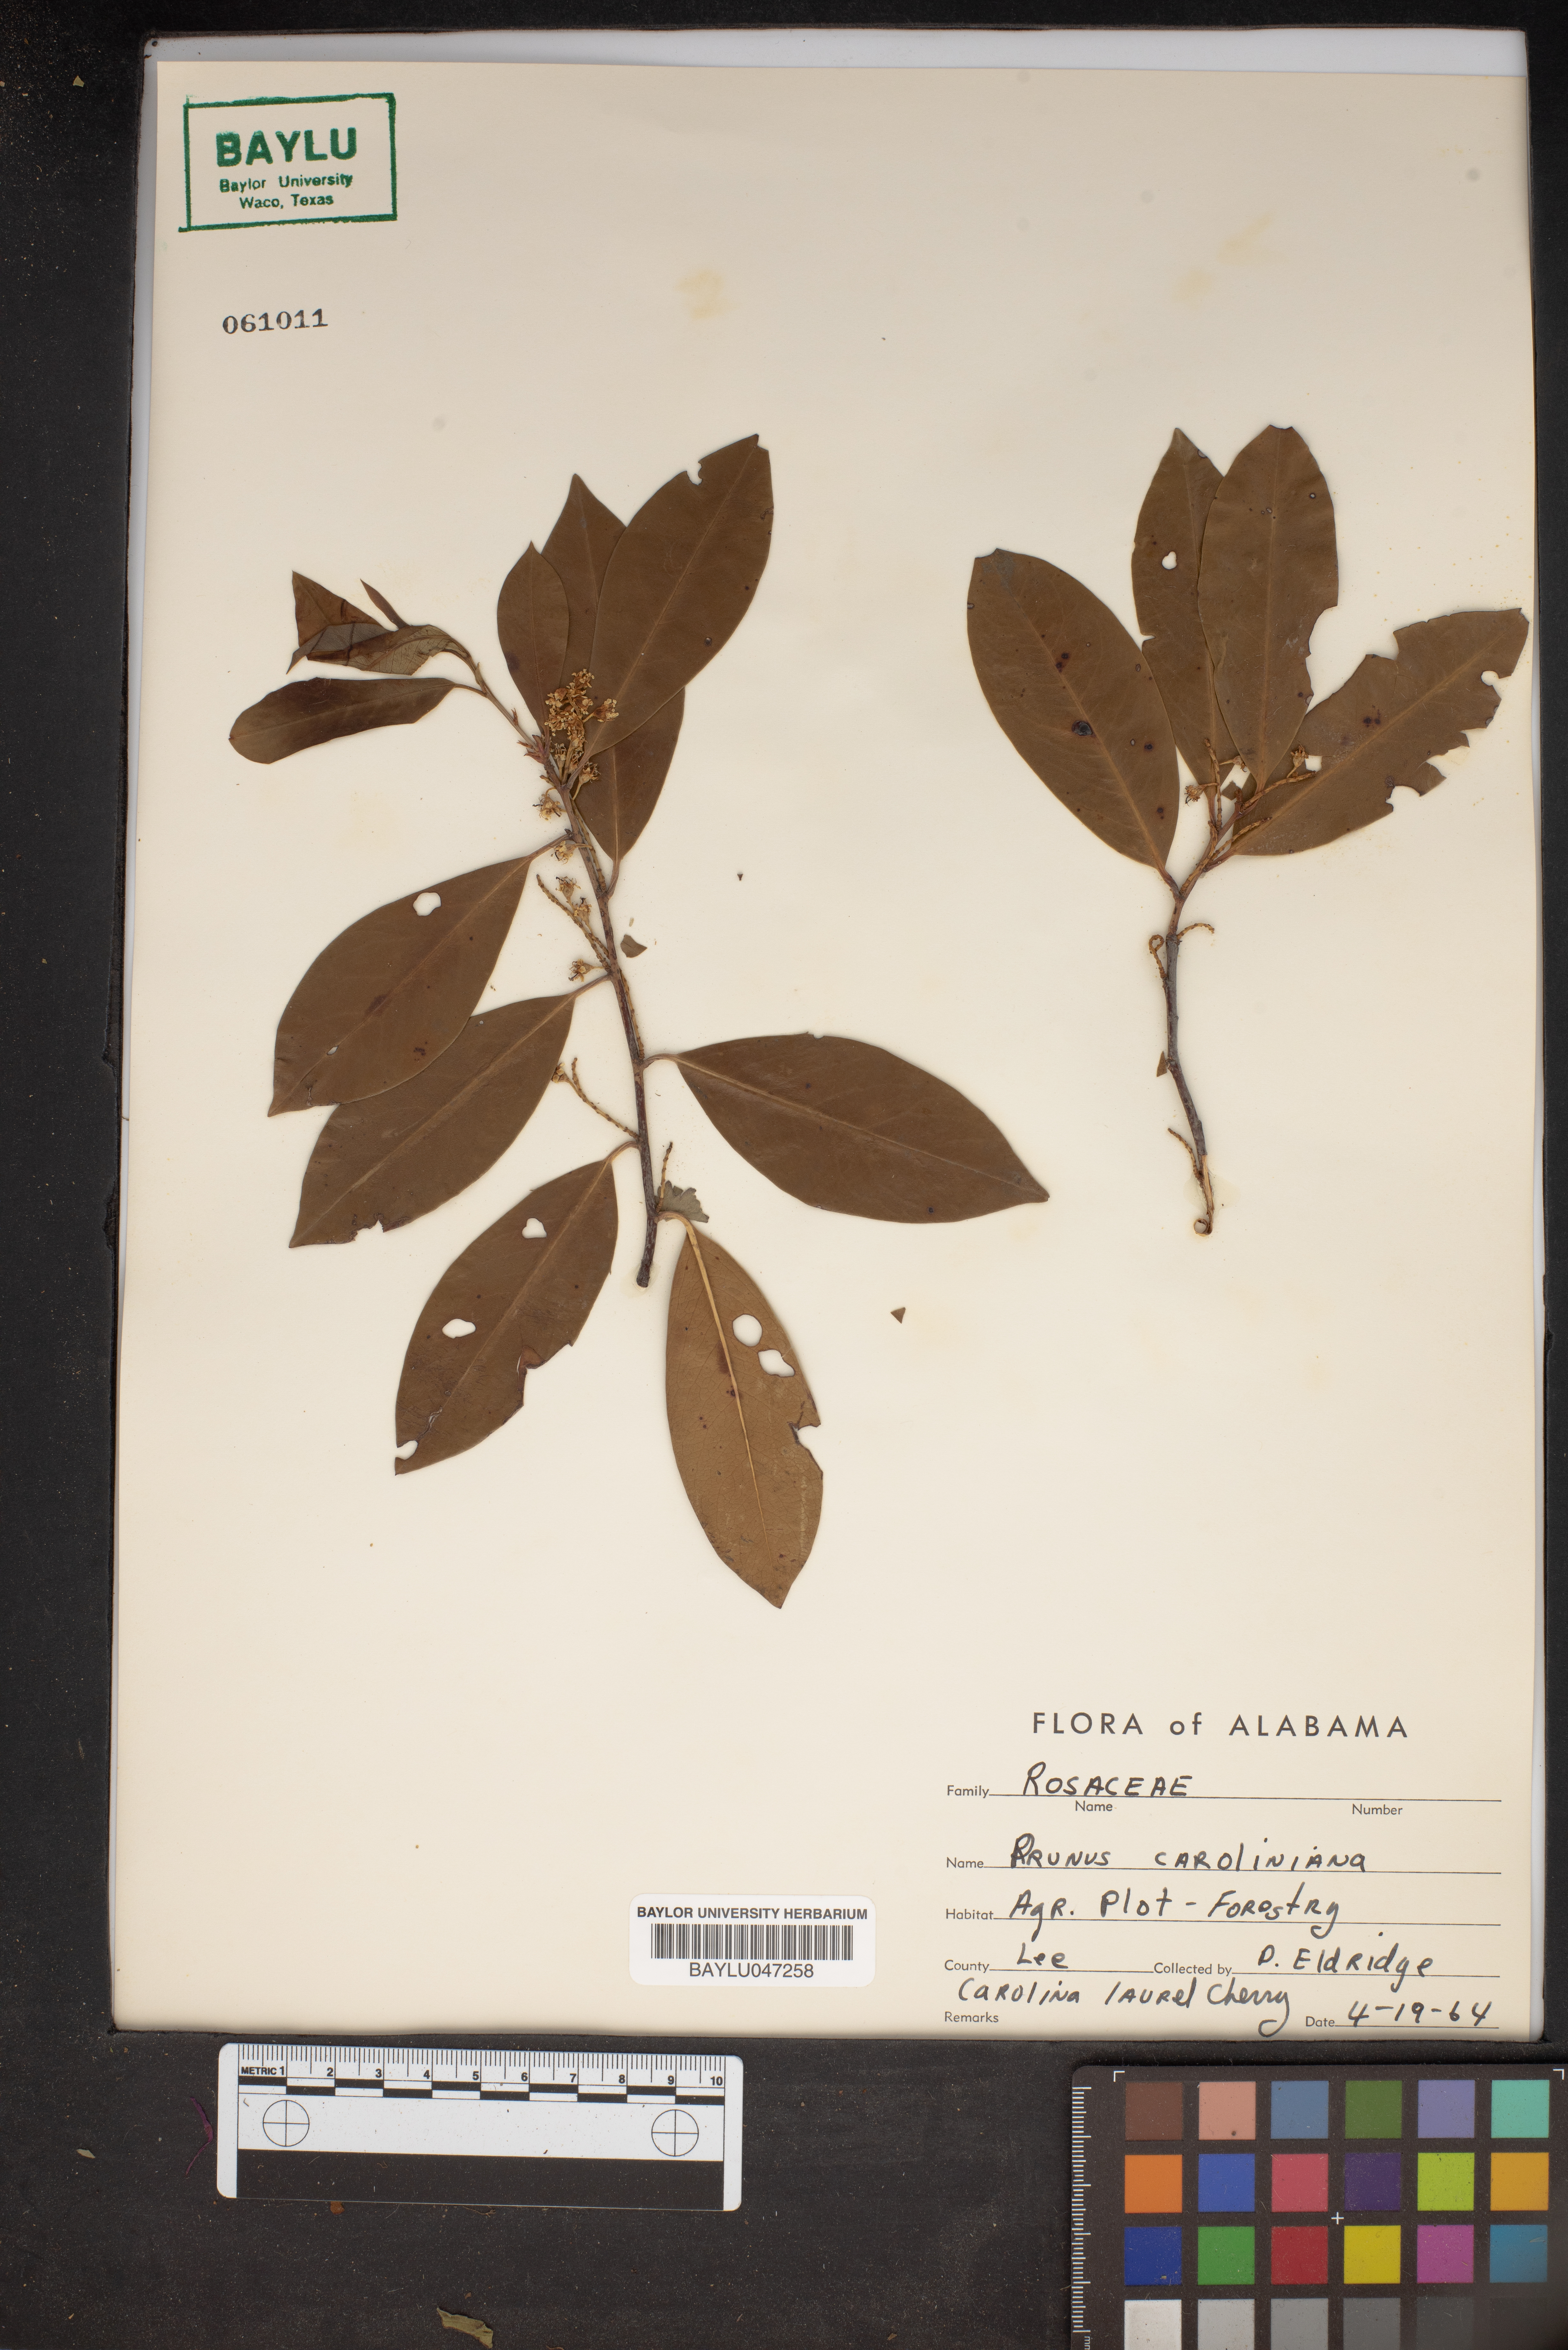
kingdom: Plantae
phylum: Tracheophyta
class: Magnoliopsida
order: Rosales
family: Rosaceae
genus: Prunus
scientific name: Prunus caroliniana
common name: Carolina laurel cherry
